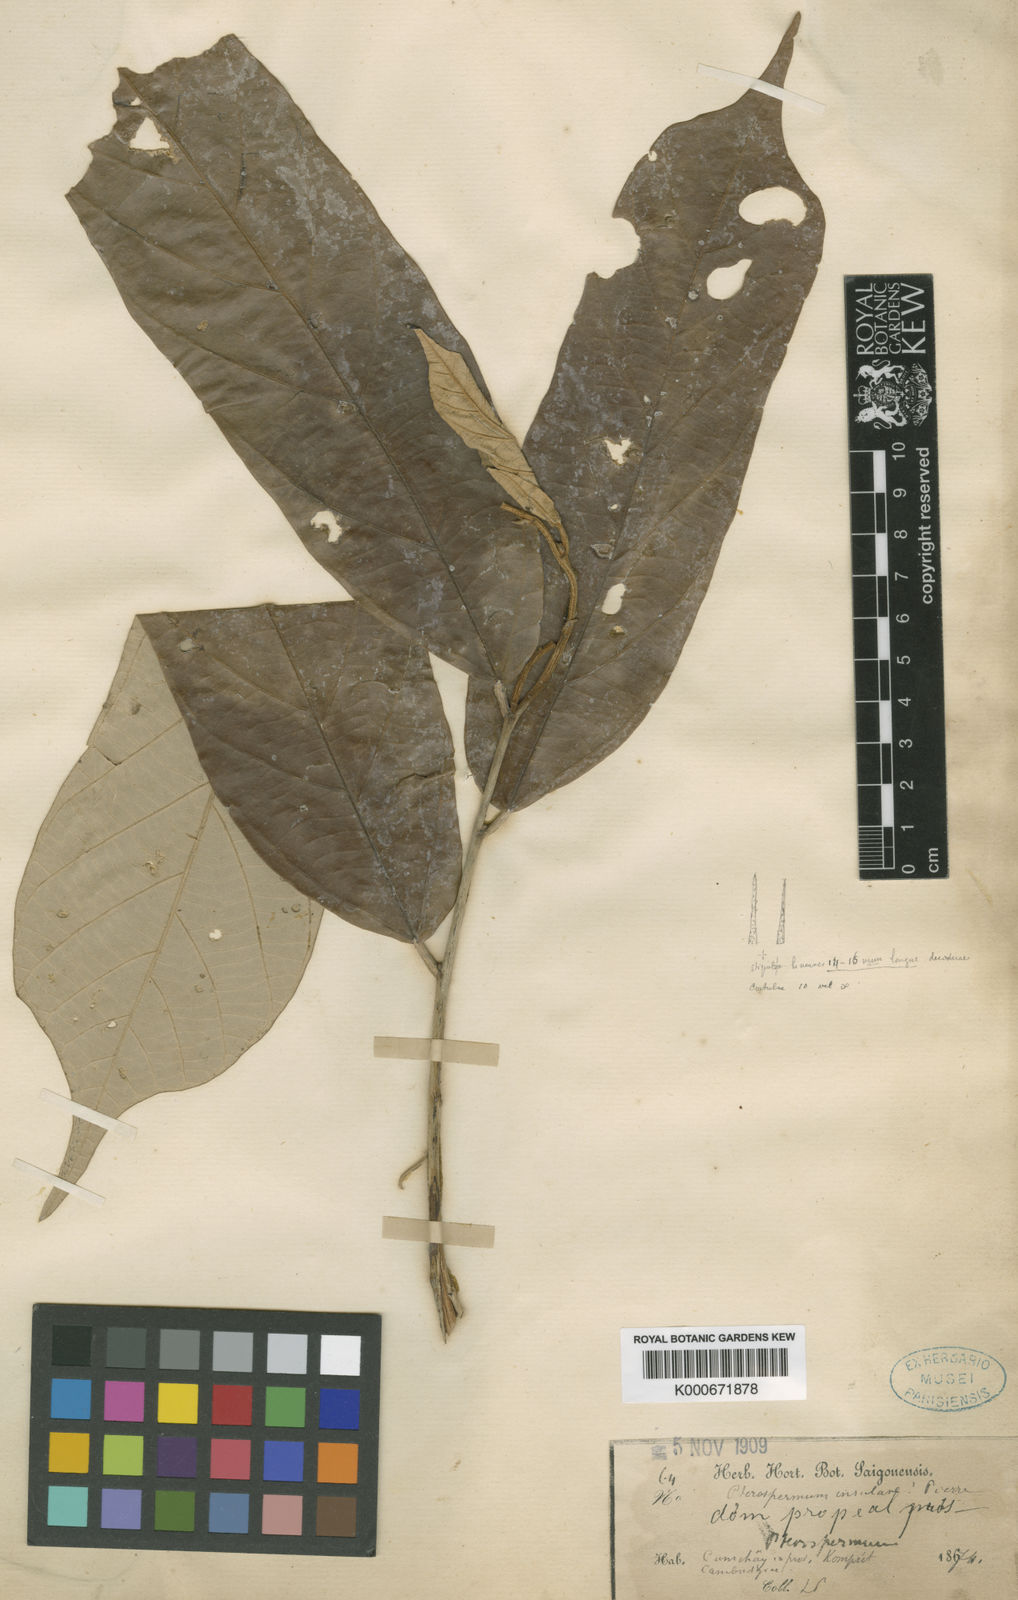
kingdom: Plantae
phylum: Tracheophyta
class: Magnoliopsida
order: Malvales
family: Malvaceae
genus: Pterospermum
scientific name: Pterospermum diversifolium
